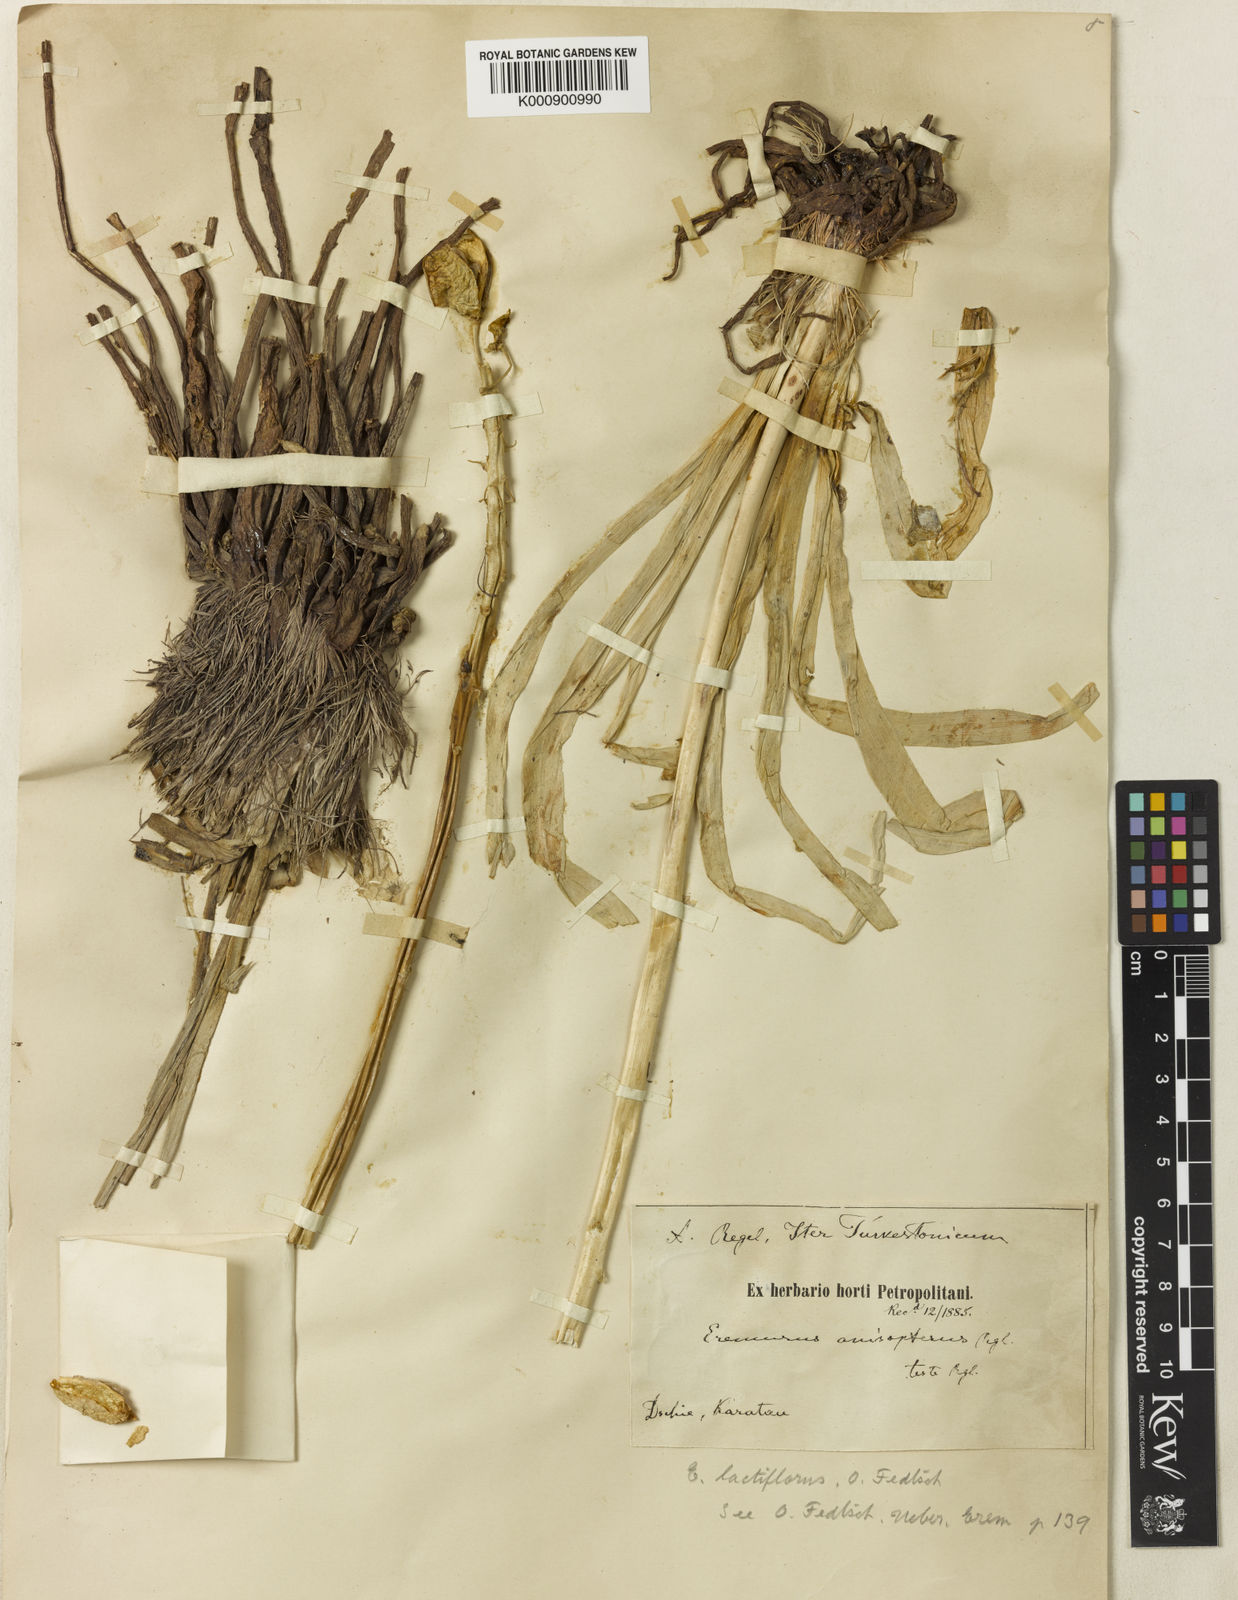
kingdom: Plantae
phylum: Tracheophyta
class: Liliopsida
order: Asparagales
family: Asphodelaceae
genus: Eremurus
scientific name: Eremurus lactiflorus
